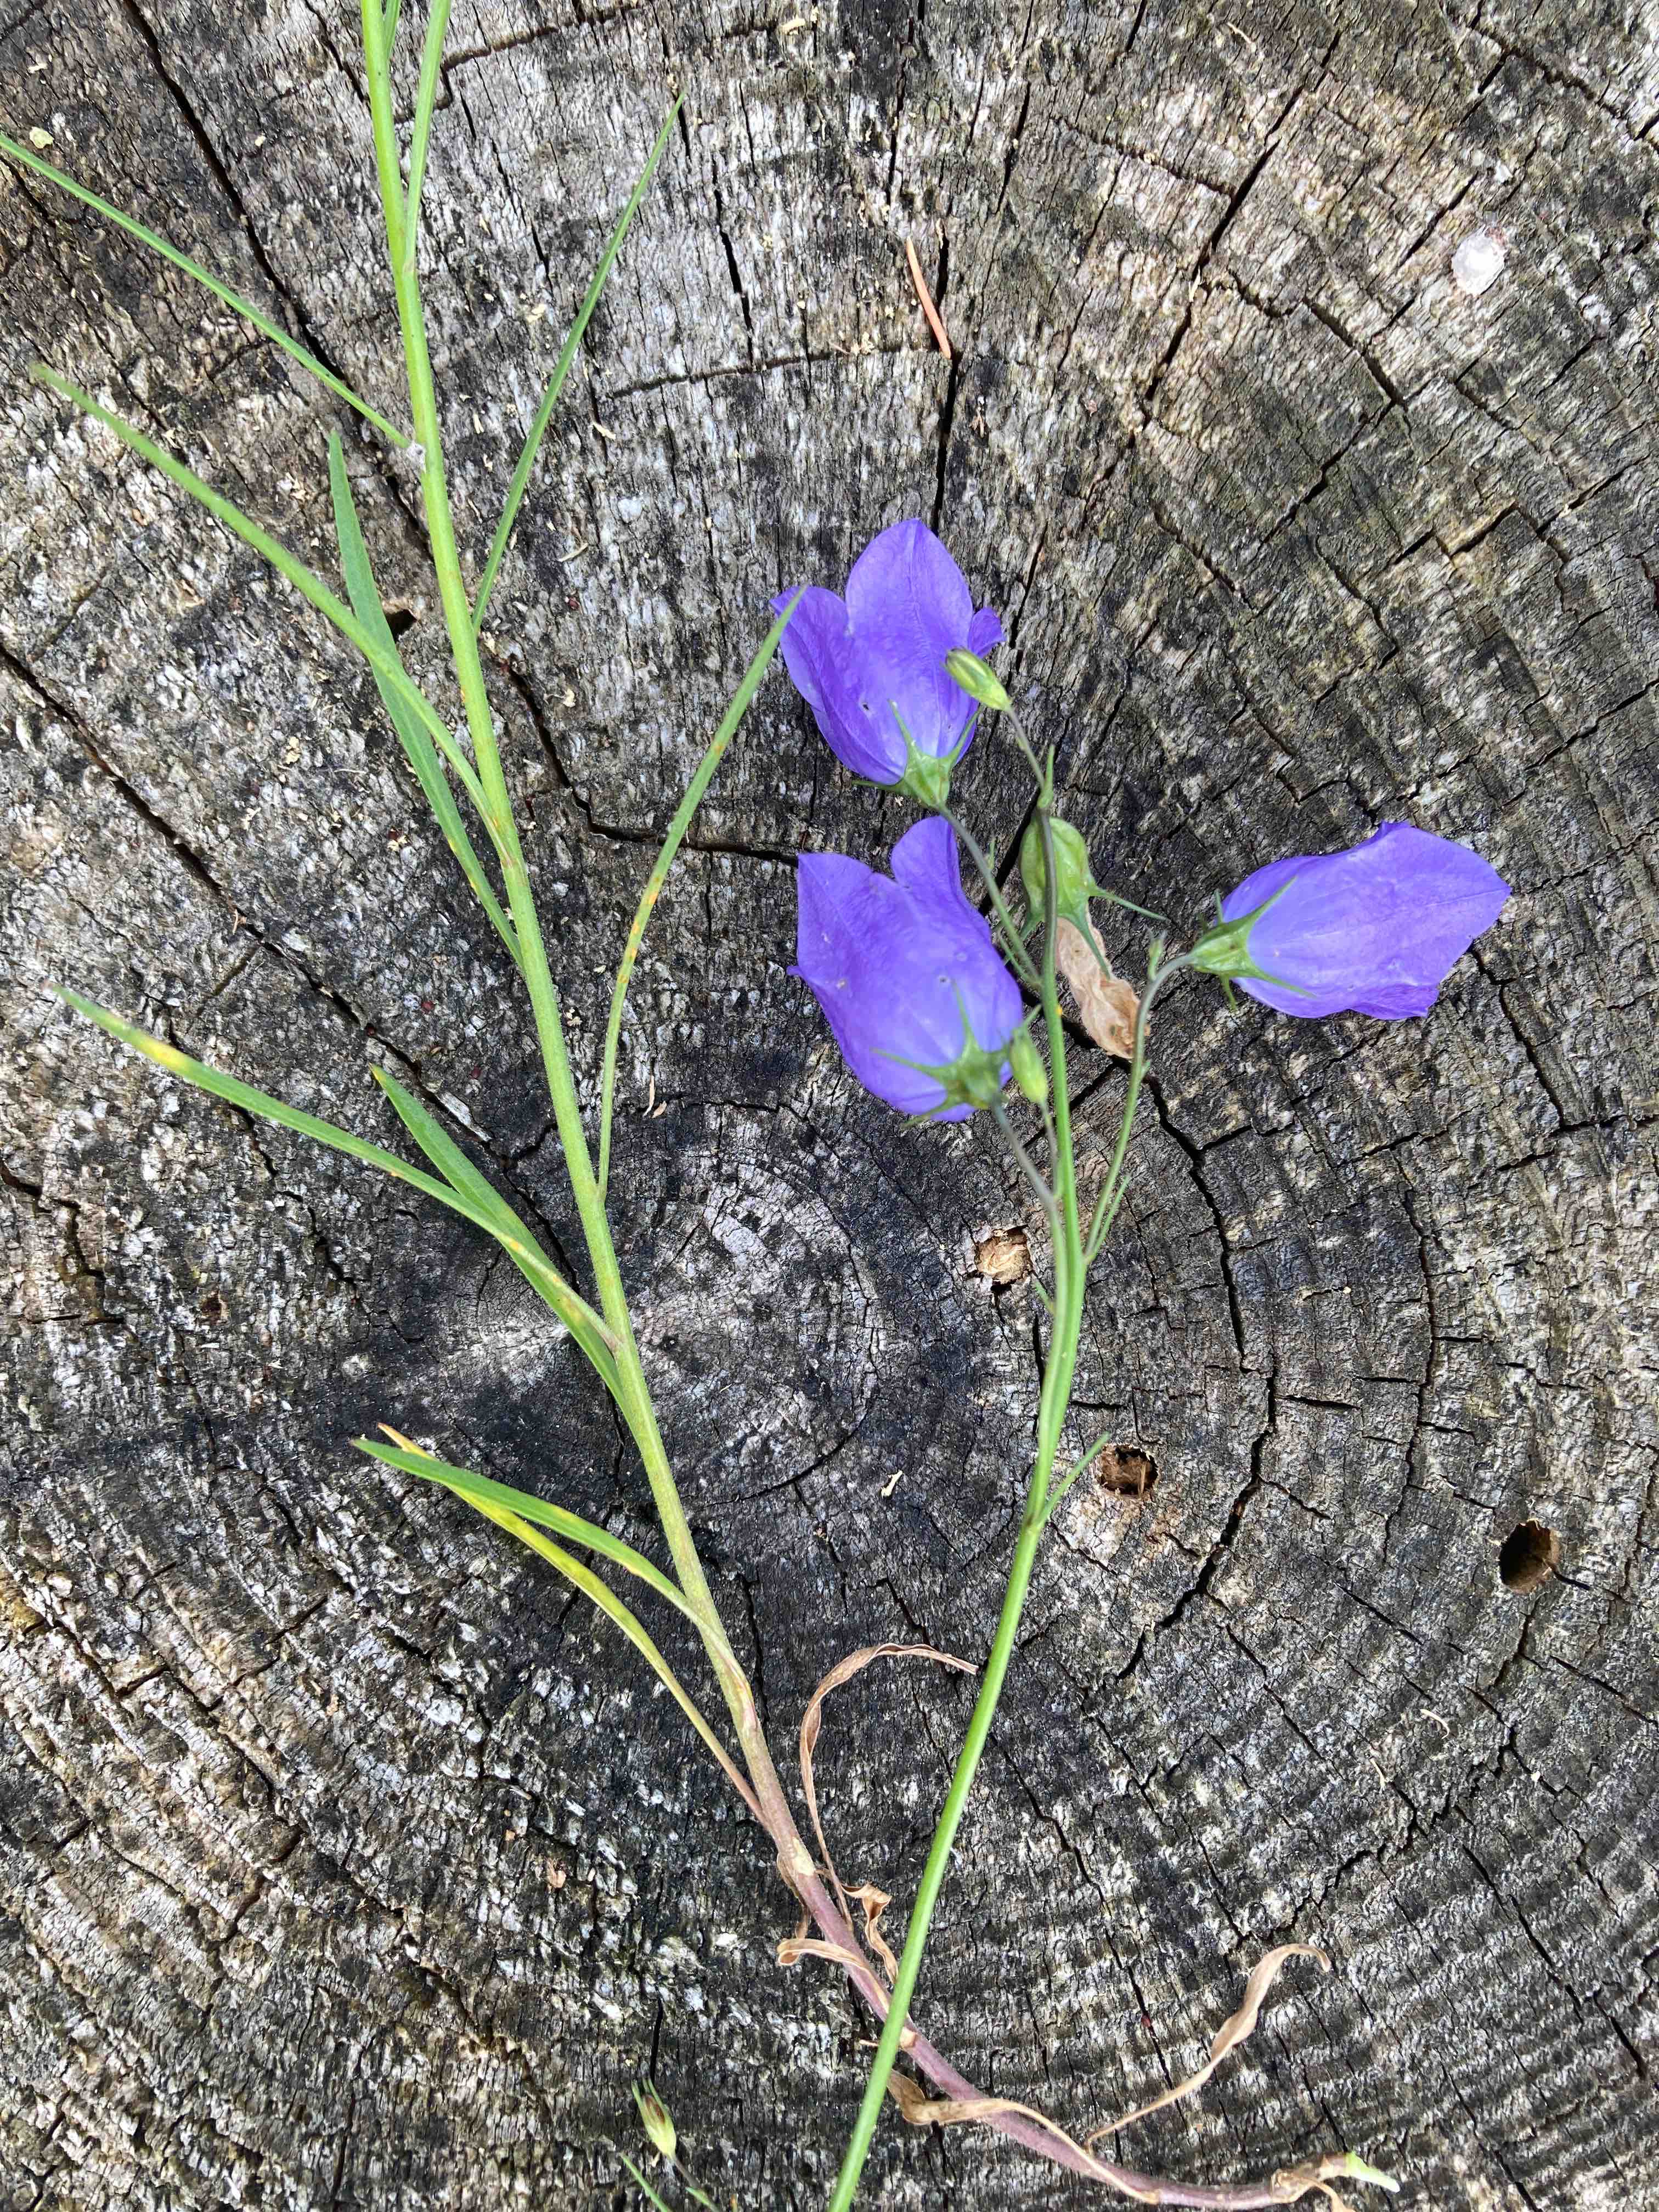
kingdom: Fungi
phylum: Basidiomycota
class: Pucciniomycetes
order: Pucciniales
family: Coleosporiaceae
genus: Coleosporium
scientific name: Coleosporium tussilaginis
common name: almindelig fyrrenålerust
